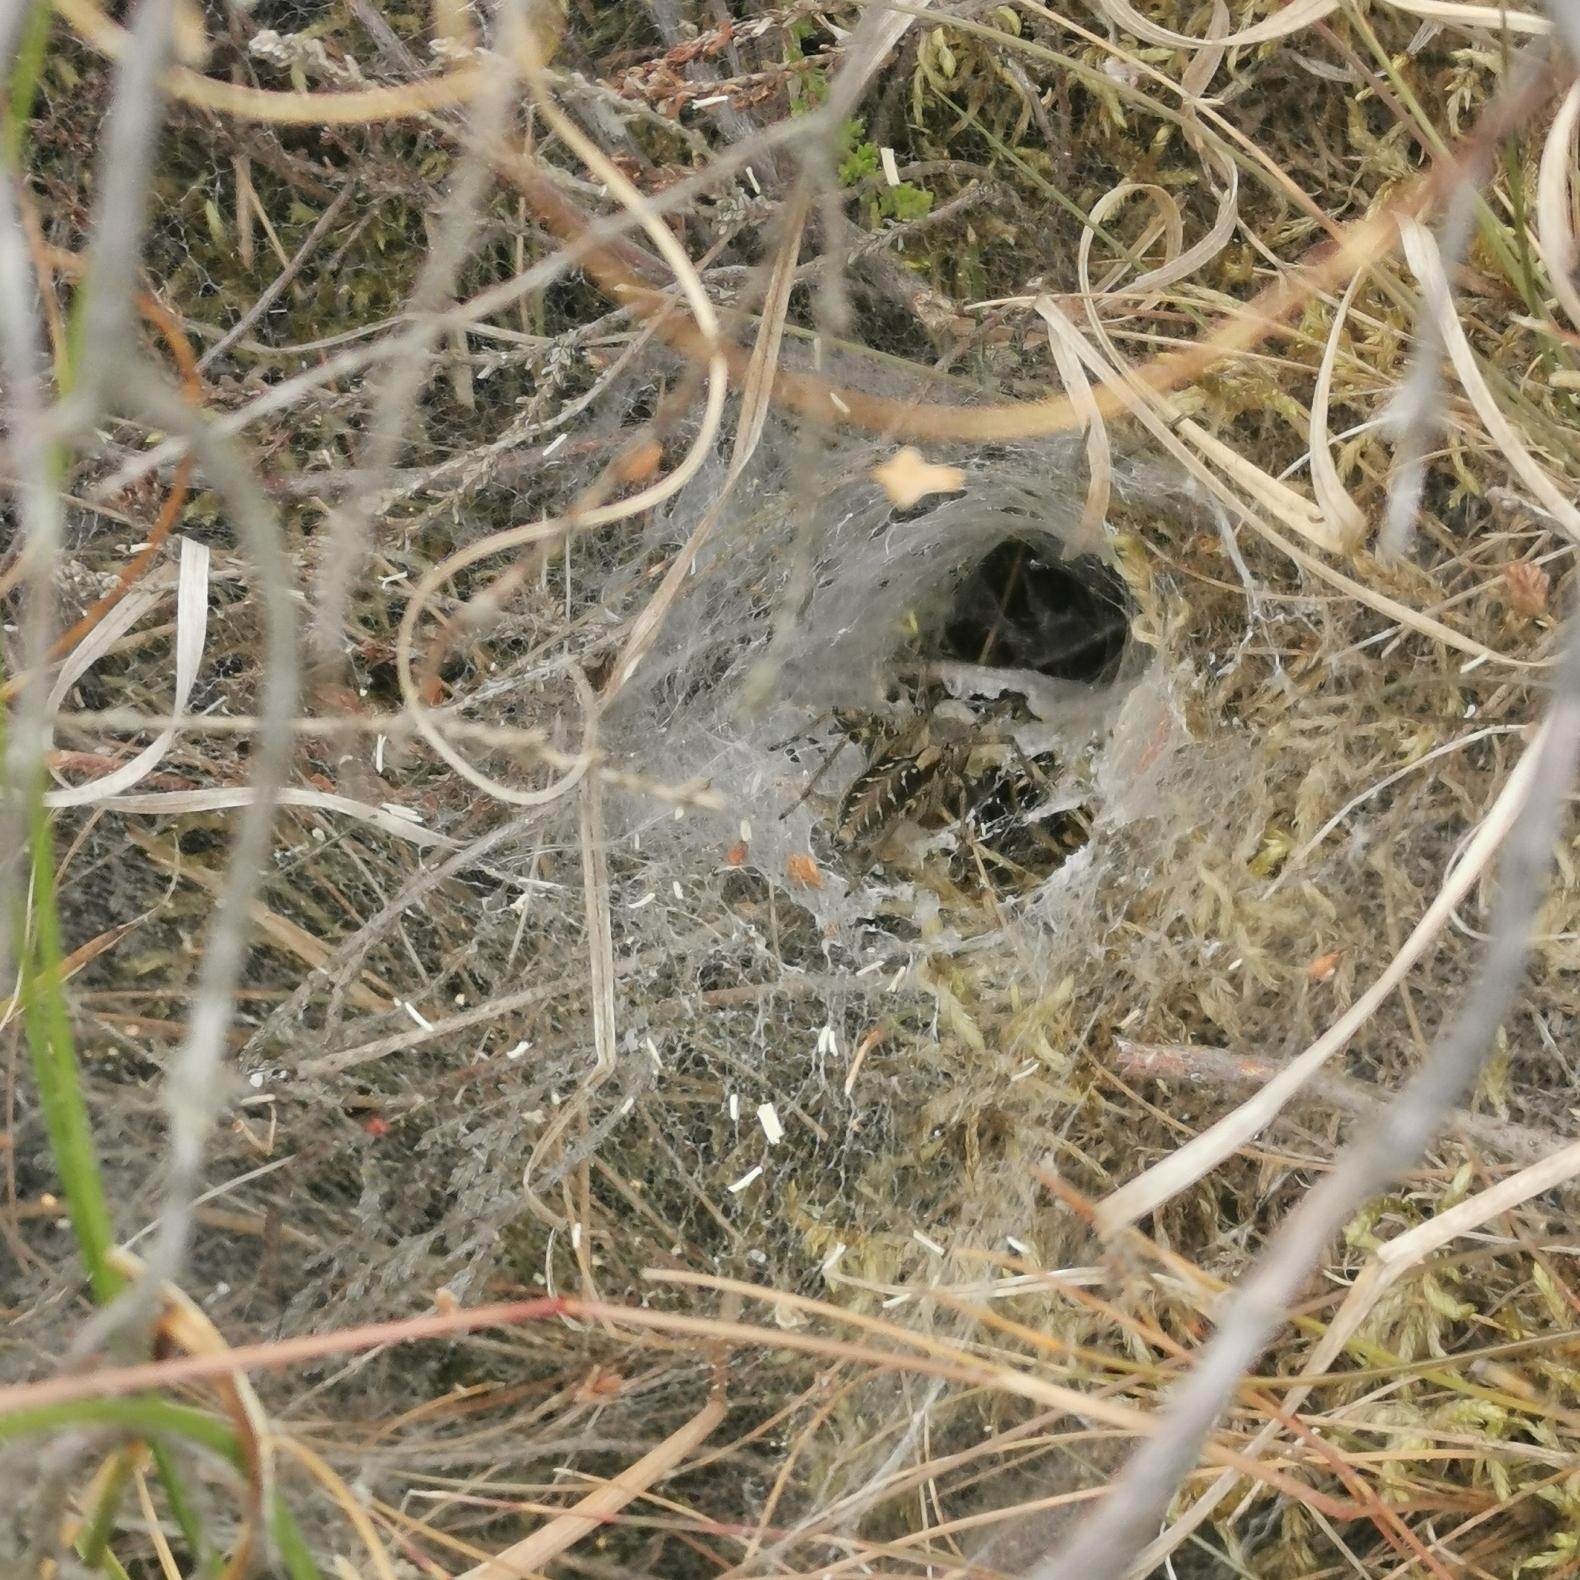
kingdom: Animalia
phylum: Arthropoda
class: Arachnida
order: Araneae
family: Agelenidae
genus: Agelena
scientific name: Agelena labyrinthica
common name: Labyrintedderkop
